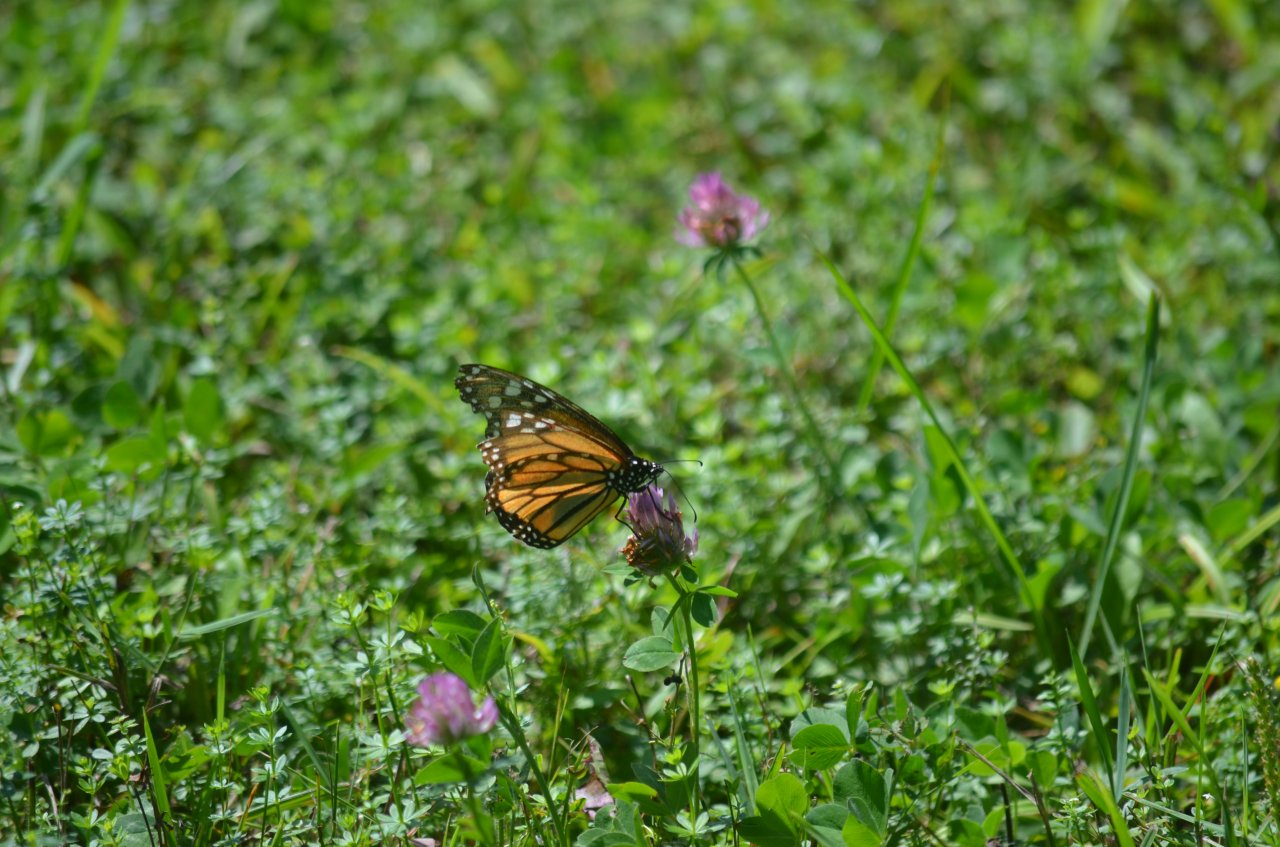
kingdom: Animalia
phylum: Arthropoda
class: Insecta
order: Lepidoptera
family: Nymphalidae
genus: Danaus
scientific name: Danaus plexippus
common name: Monarch
